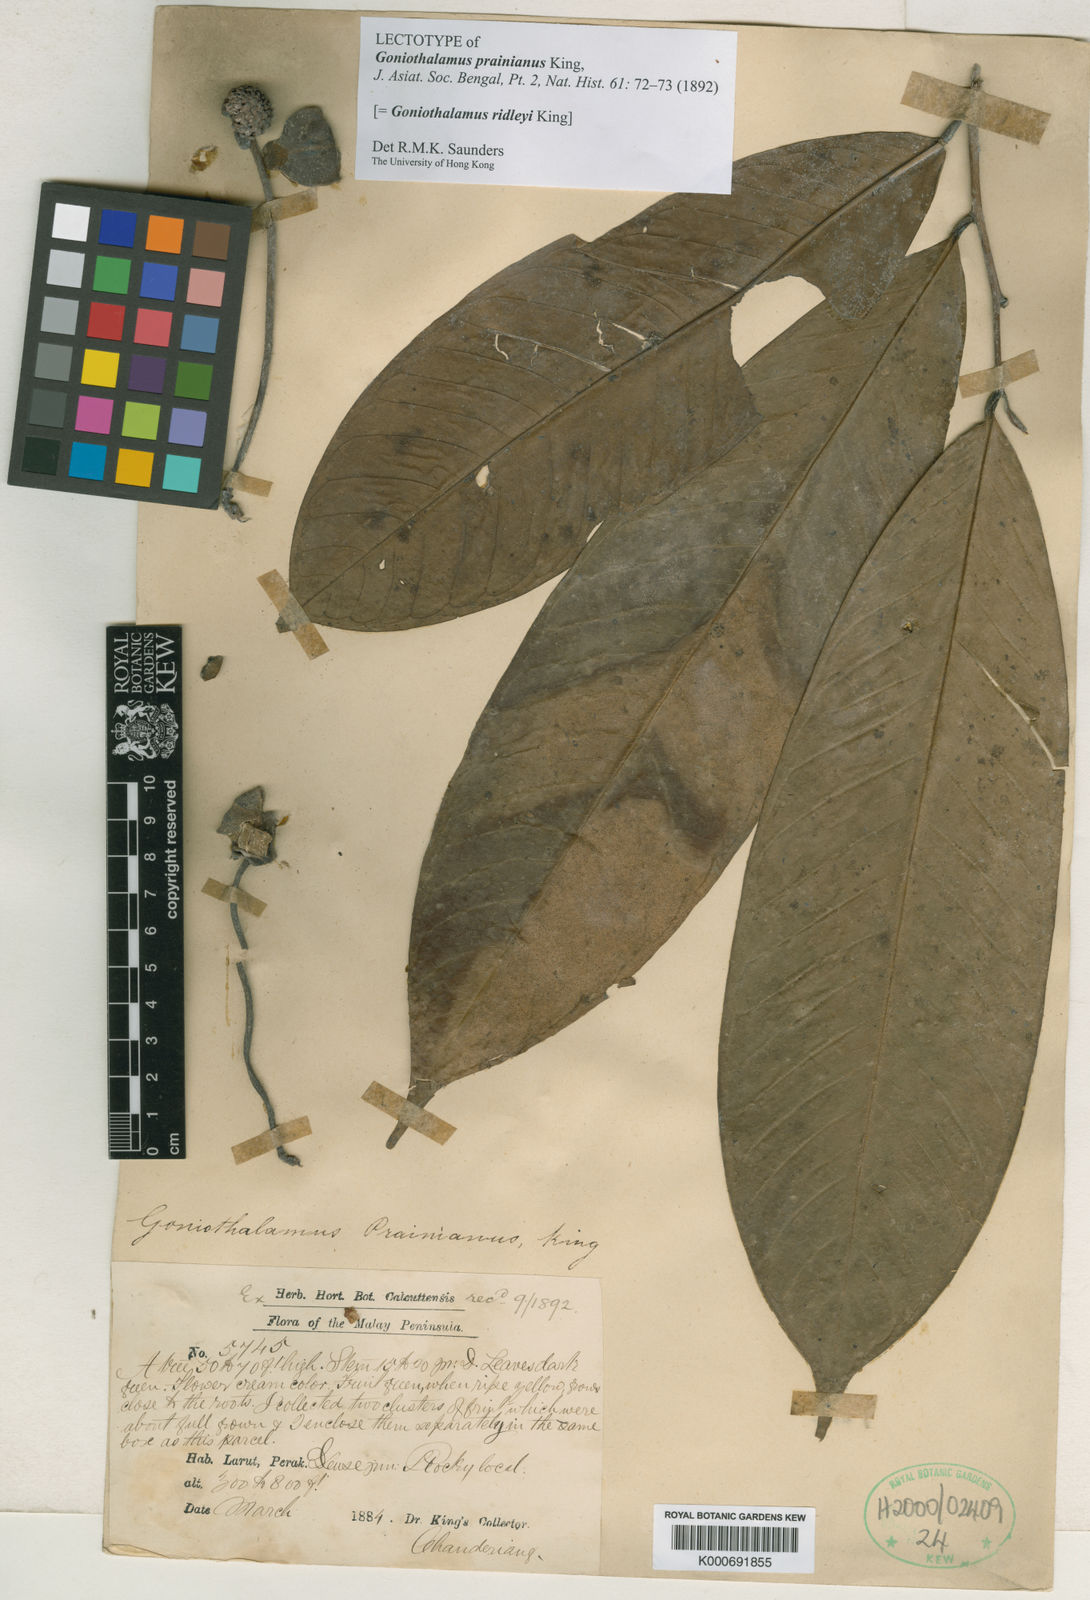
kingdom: Plantae
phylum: Tracheophyta
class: Magnoliopsida
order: Magnoliales
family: Annonaceae
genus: Goniothalamus
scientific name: Goniothalamus ridleyi
